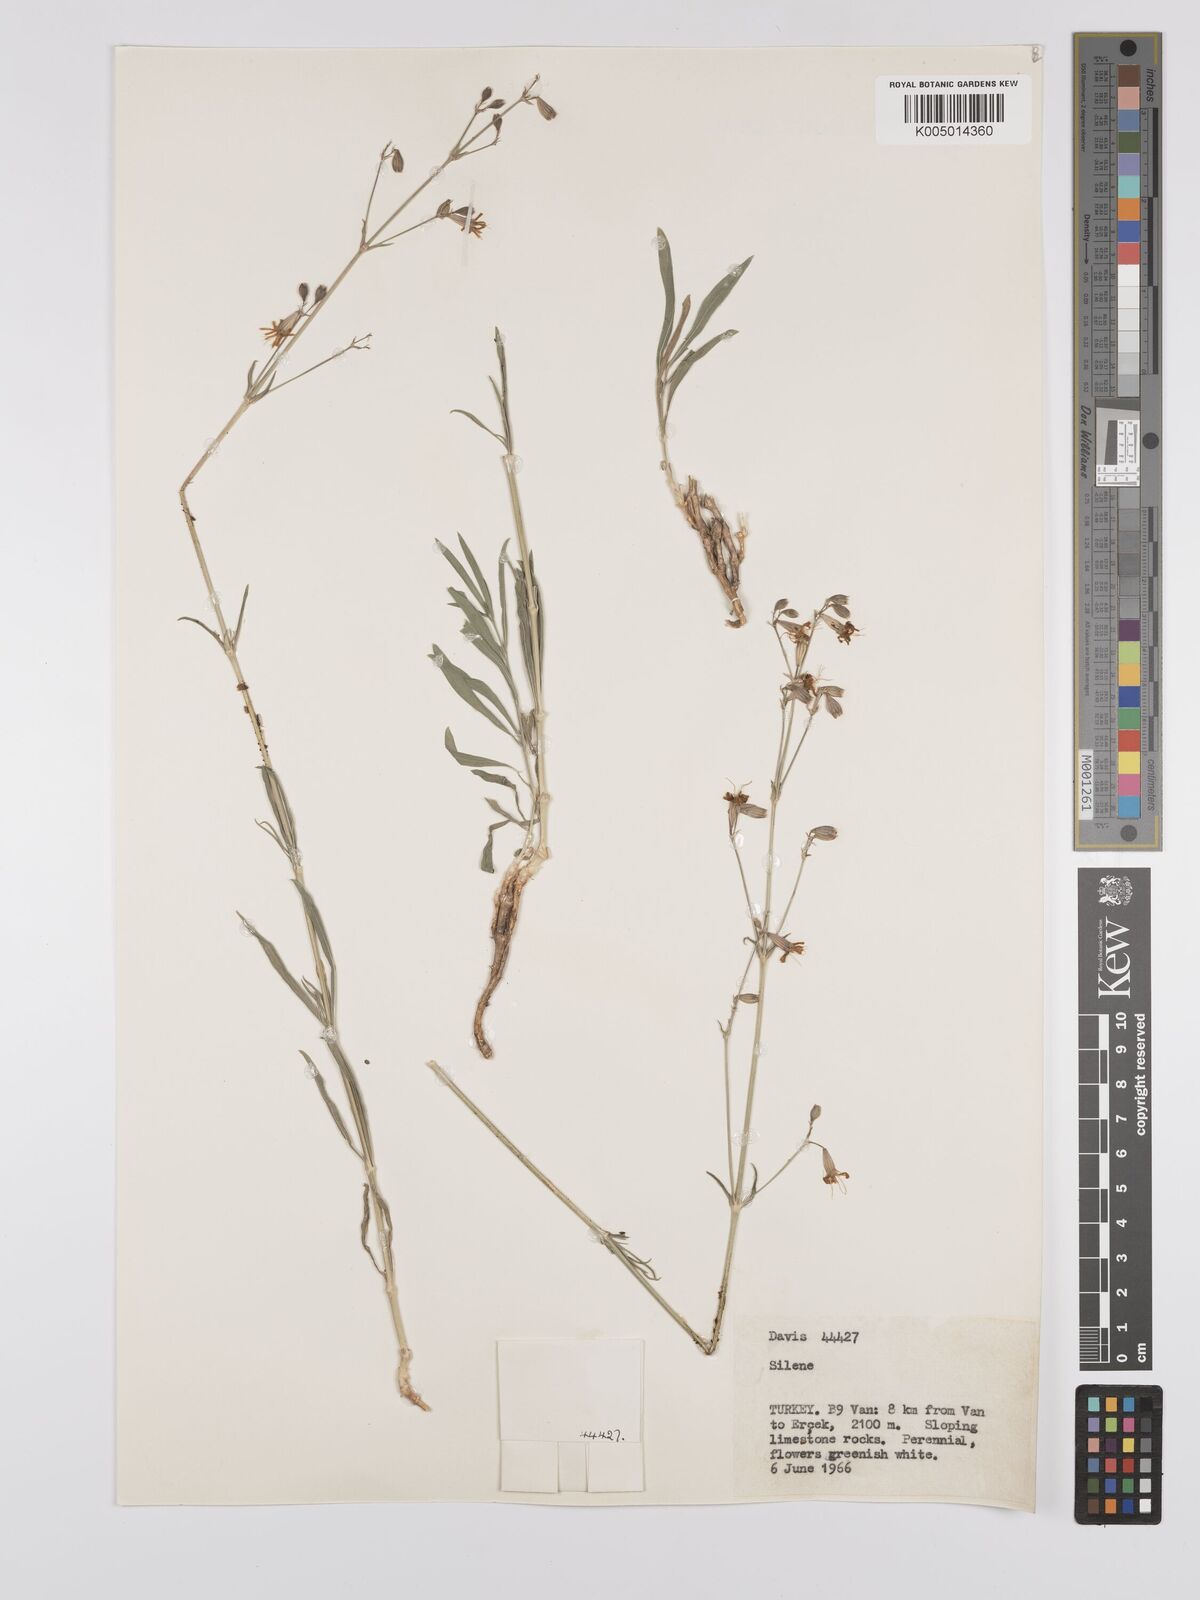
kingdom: Plantae
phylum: Tracheophyta
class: Magnoliopsida
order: Caryophyllales
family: Caryophyllaceae
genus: Silene
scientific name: Silene
